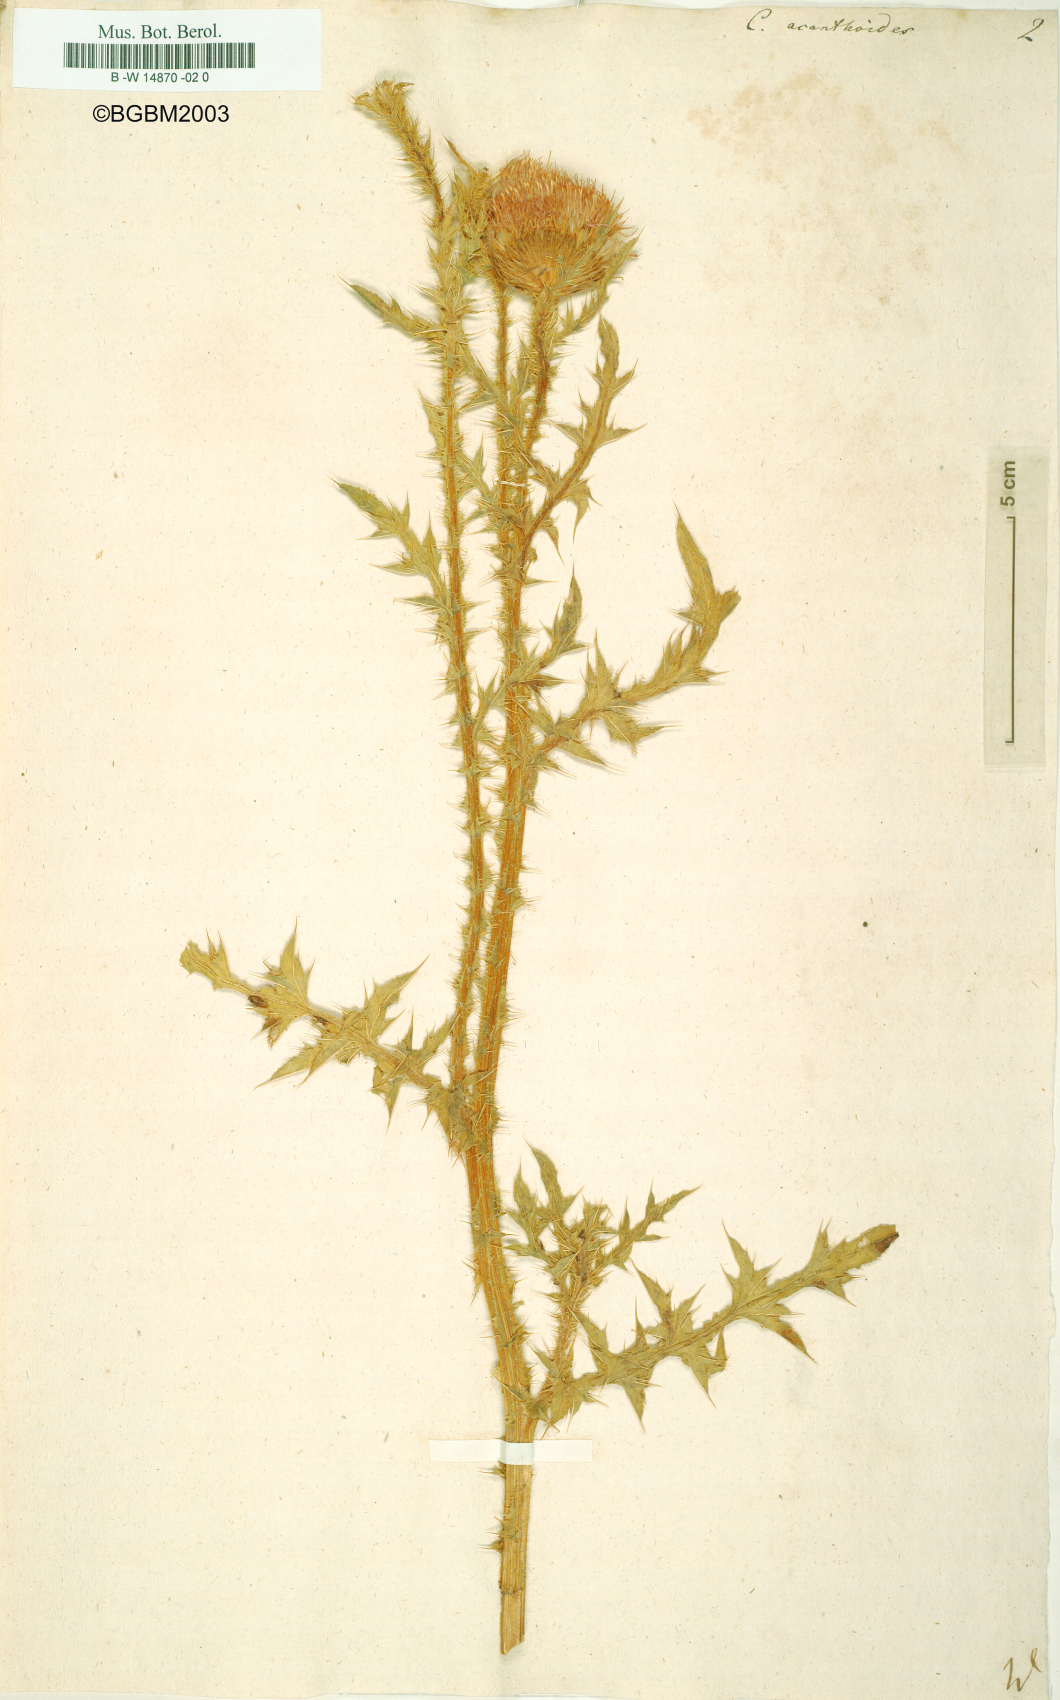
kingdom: Plantae
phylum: Tracheophyta
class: Magnoliopsida
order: Asterales
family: Asteraceae
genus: Carduus
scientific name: Carduus acanthoides
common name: Plumeless thistle
